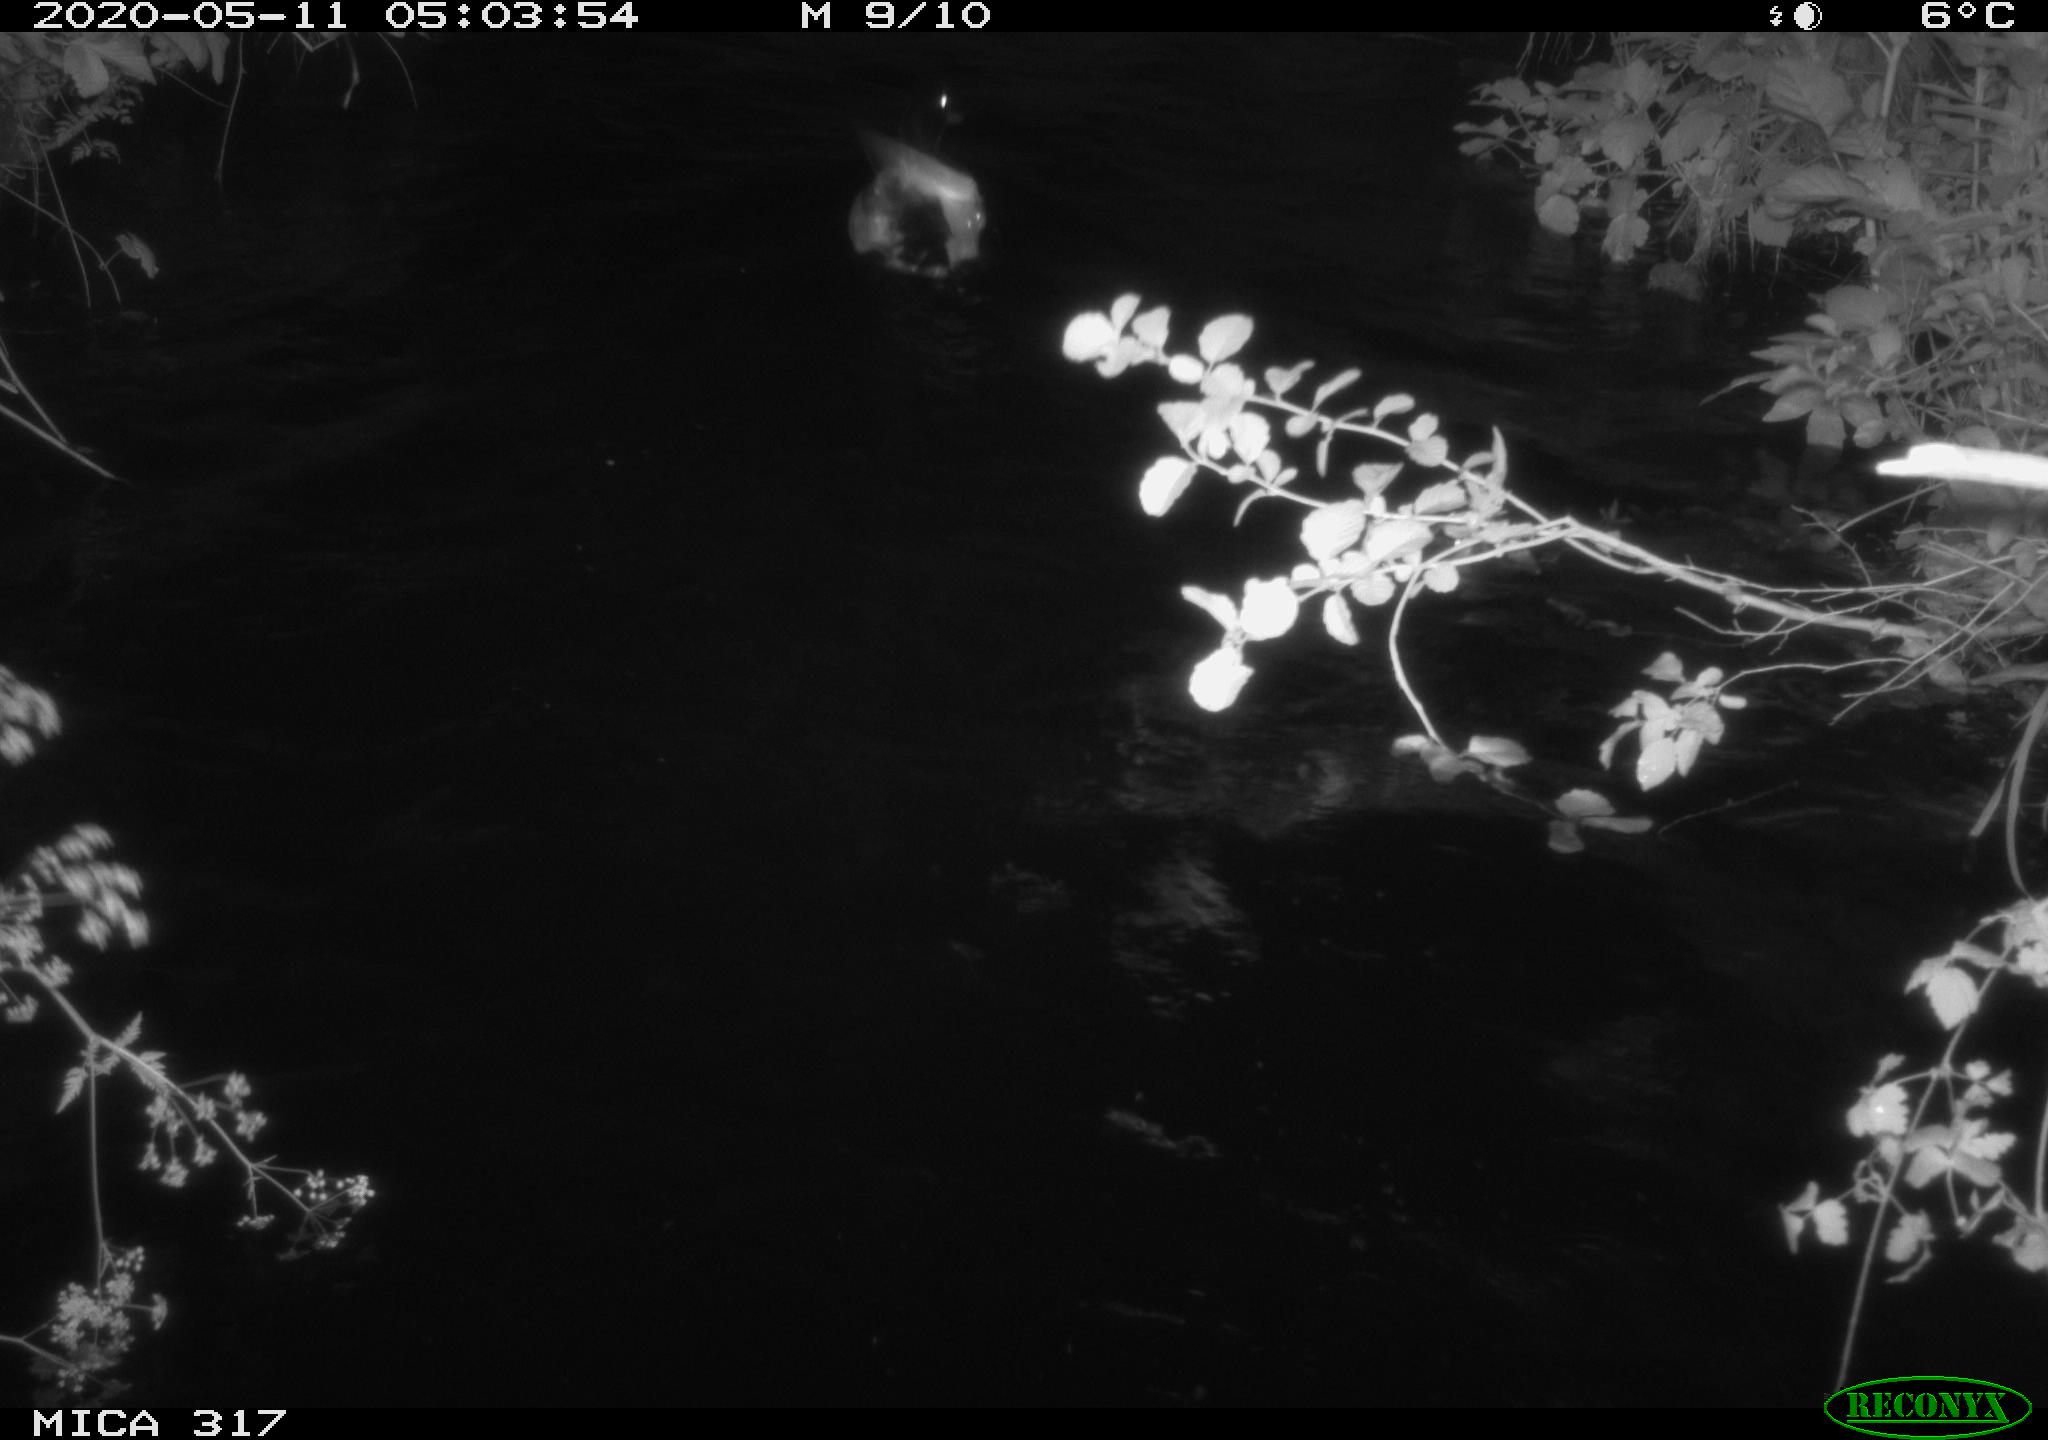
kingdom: Animalia
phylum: Chordata
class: Aves
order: Anseriformes
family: Anatidae
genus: Anas
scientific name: Anas platyrhynchos
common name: Mallard
